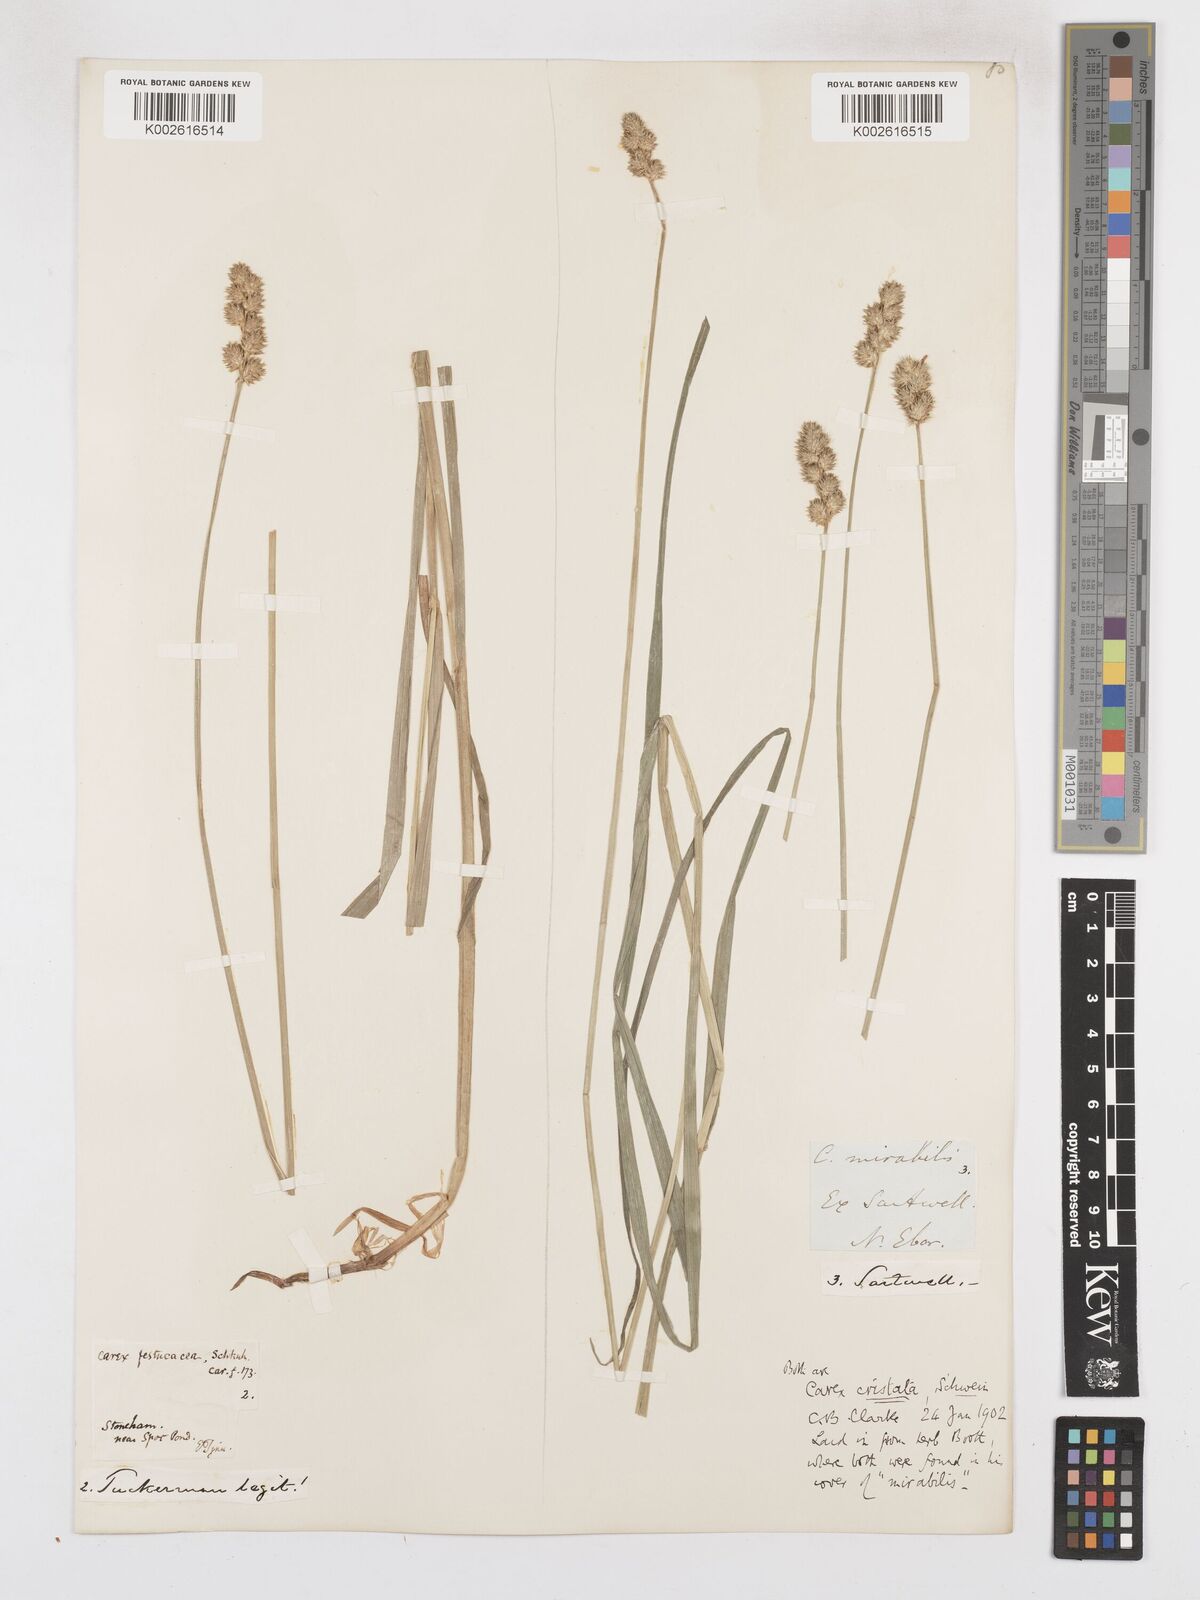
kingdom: Plantae
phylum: Tracheophyta
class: Liliopsida
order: Poales
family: Cyperaceae
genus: Carex
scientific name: Carex cristatella
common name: Crested oval sedge
